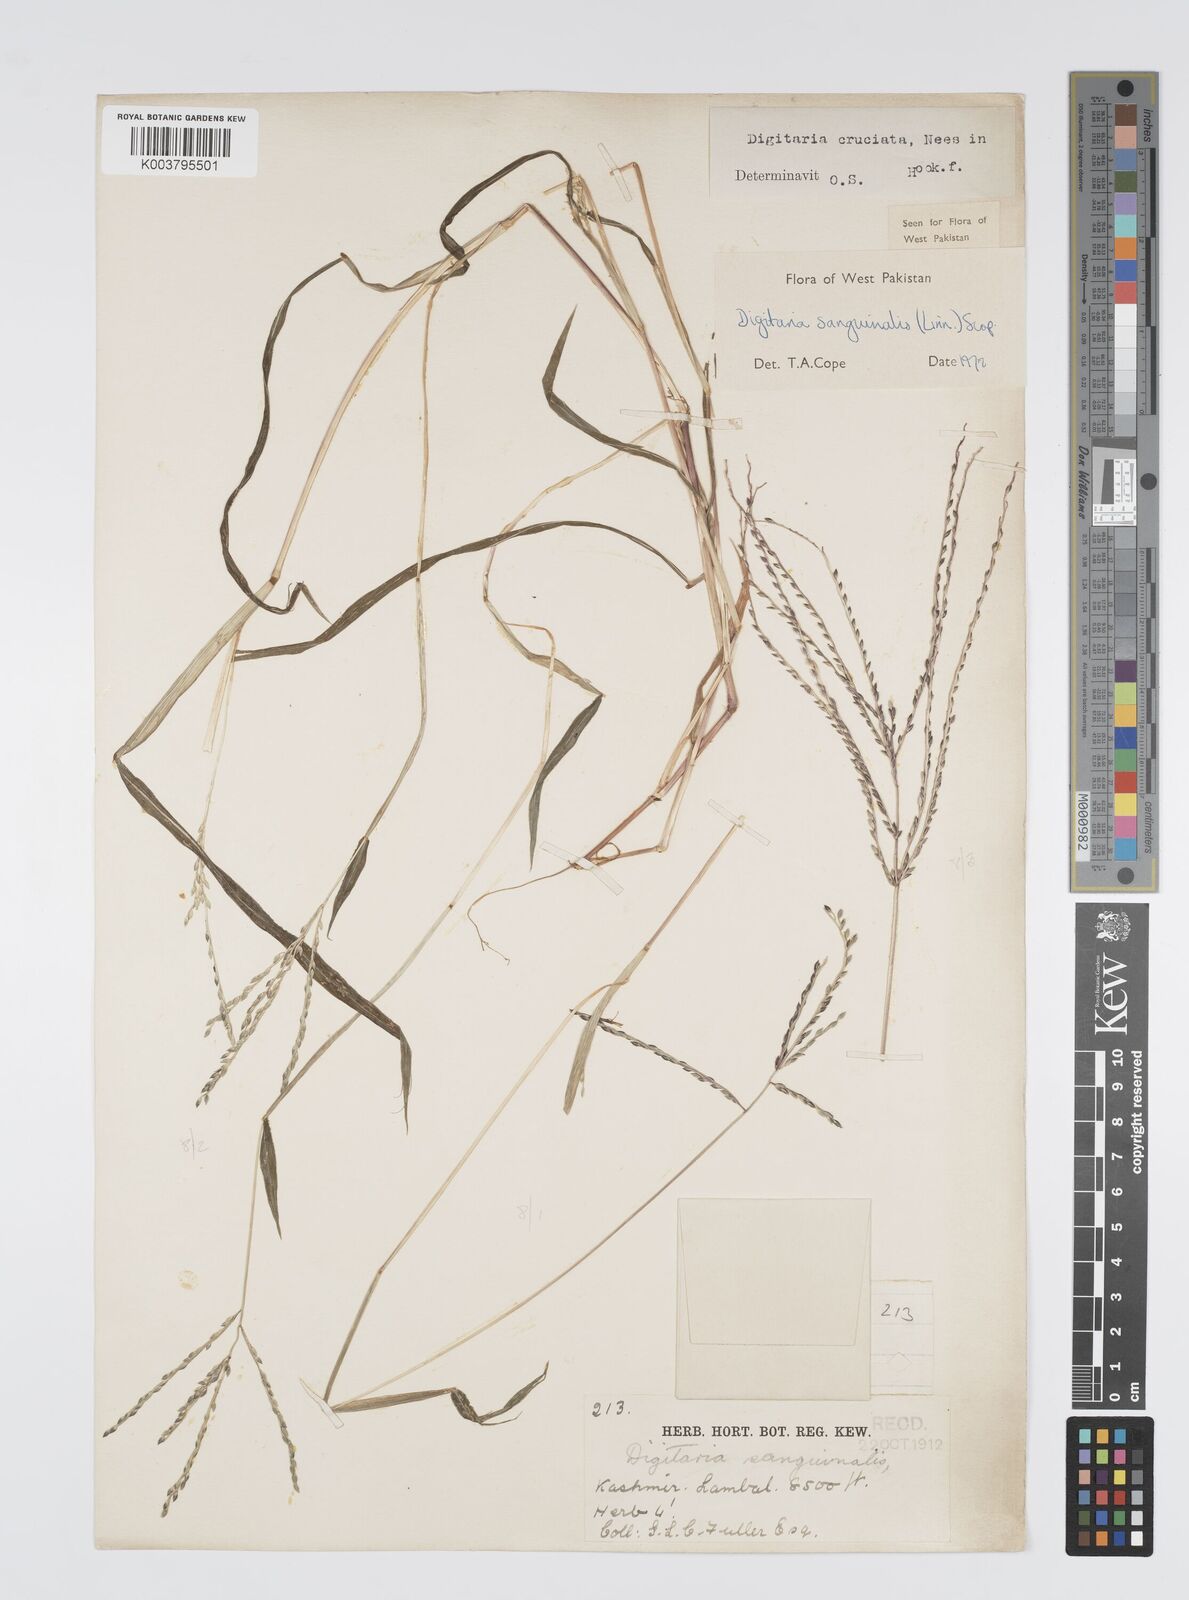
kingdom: Plantae
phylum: Tracheophyta
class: Liliopsida
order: Poales
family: Poaceae
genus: Digitaria
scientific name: Digitaria sanguinalis
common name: Hairy crabgrass
